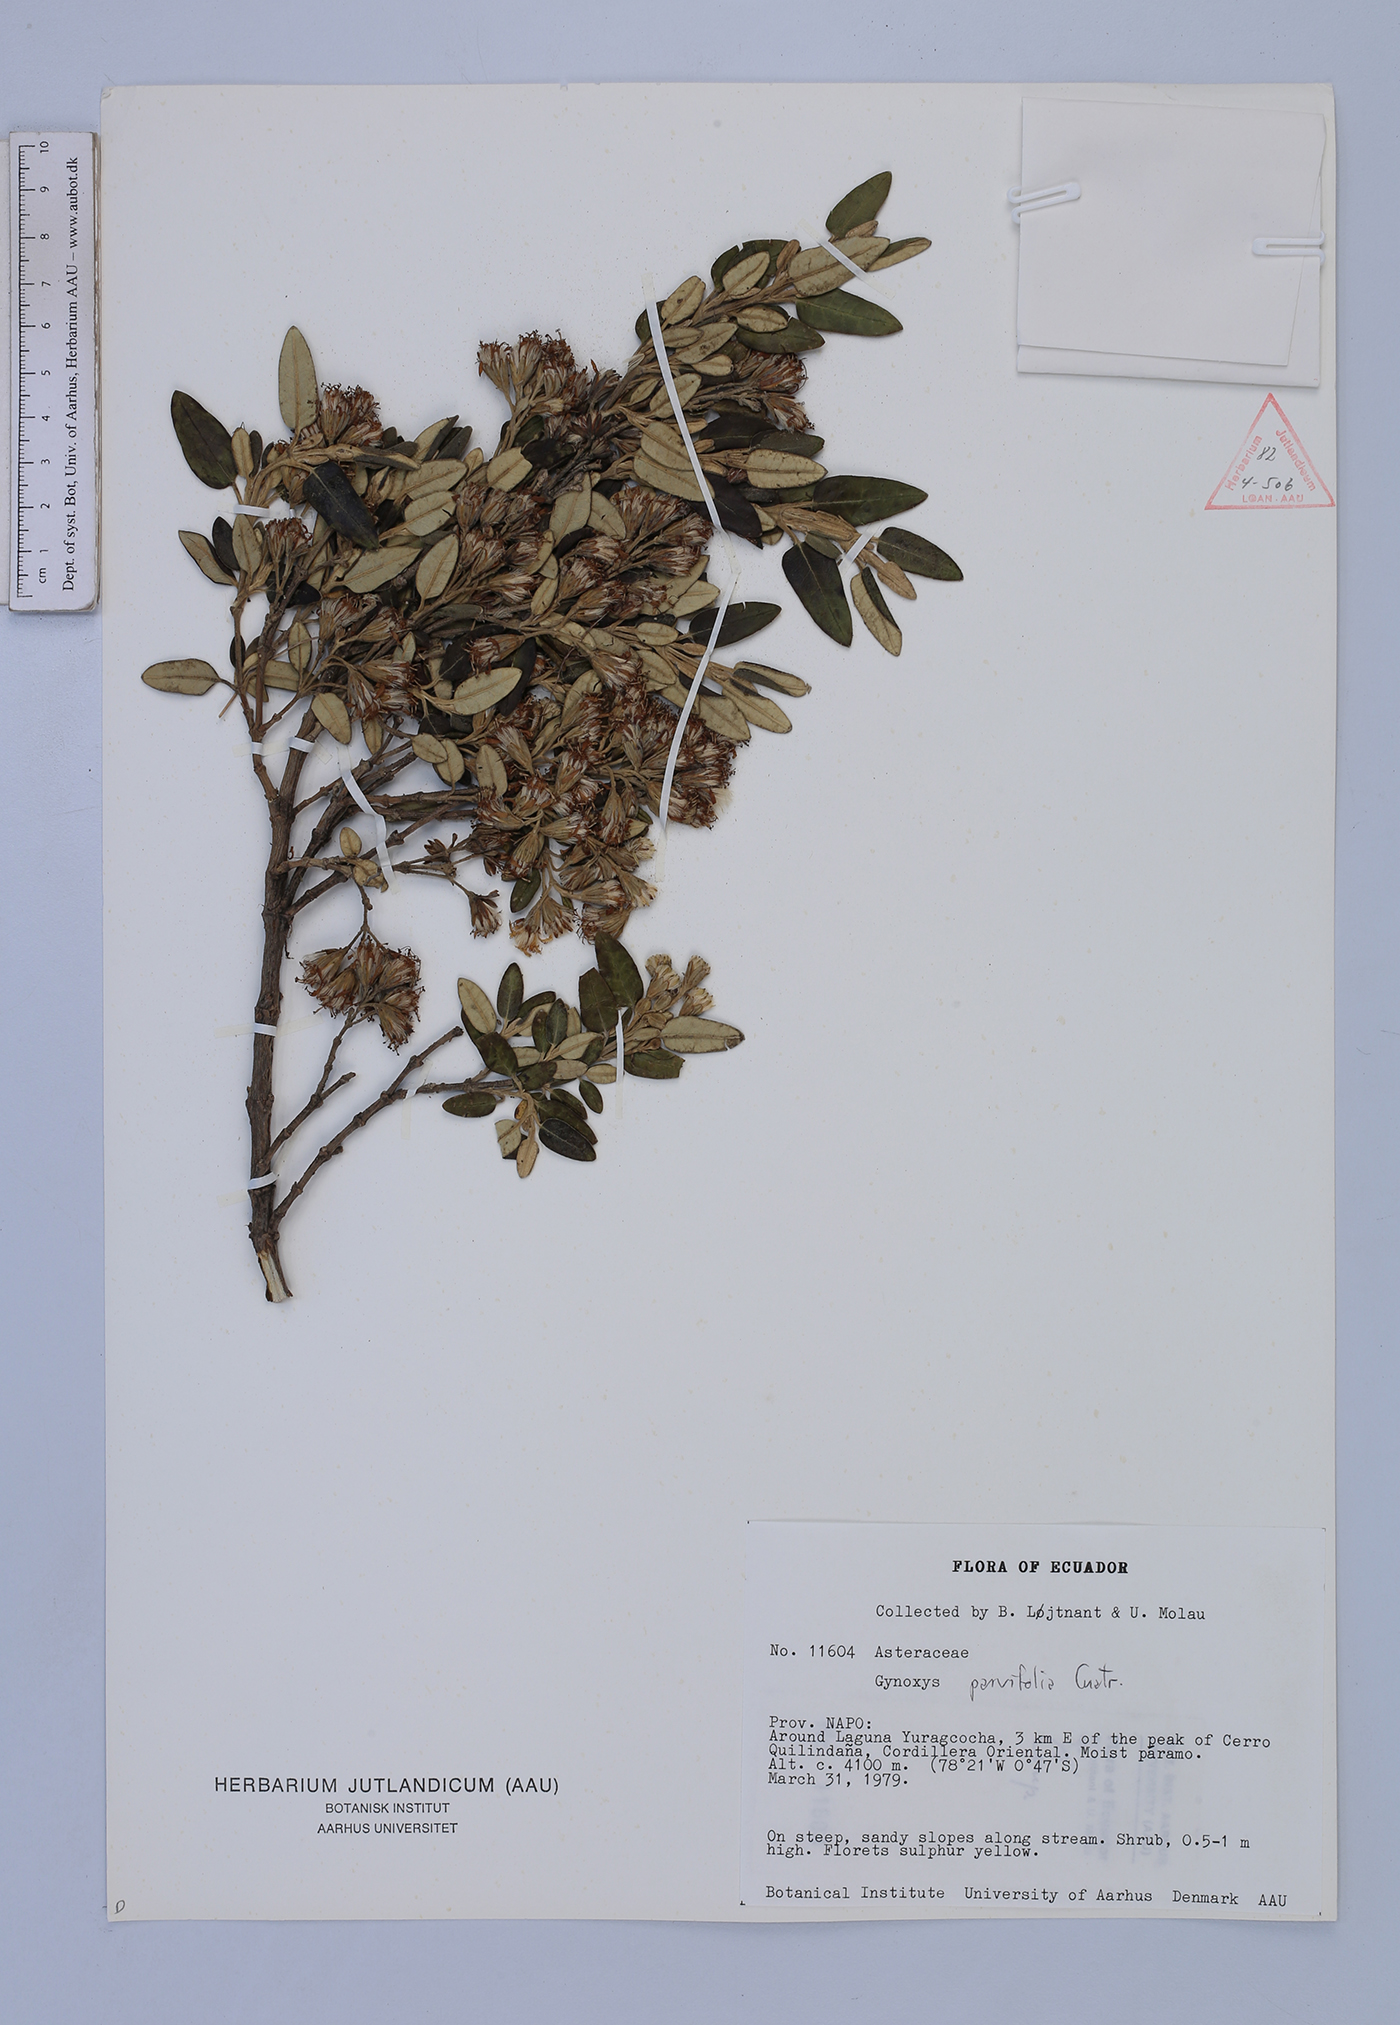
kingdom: Plantae
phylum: Tracheophyta
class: Magnoliopsida
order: Asterales
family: Asteraceae
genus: Gynoxys
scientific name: Gynoxys sodiroi
